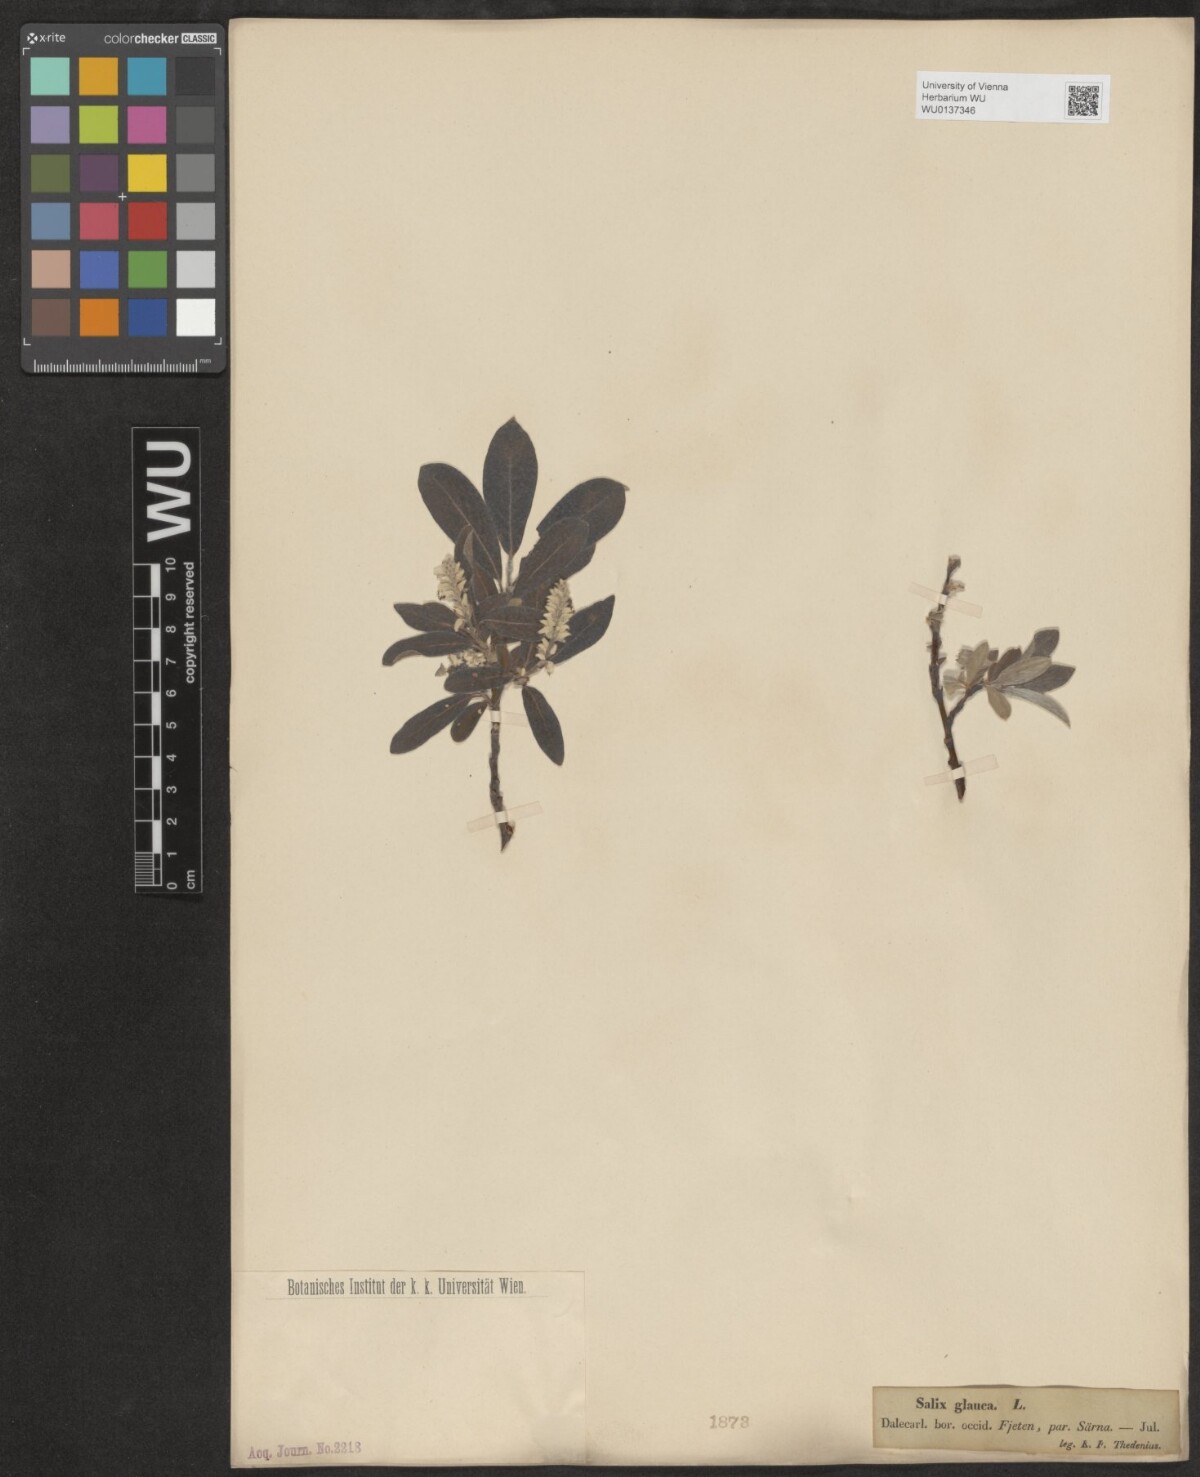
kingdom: Plantae
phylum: Tracheophyta
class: Magnoliopsida
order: Malpighiales
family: Salicaceae
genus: Salix
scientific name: Salix glauca
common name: Glaucous willow
